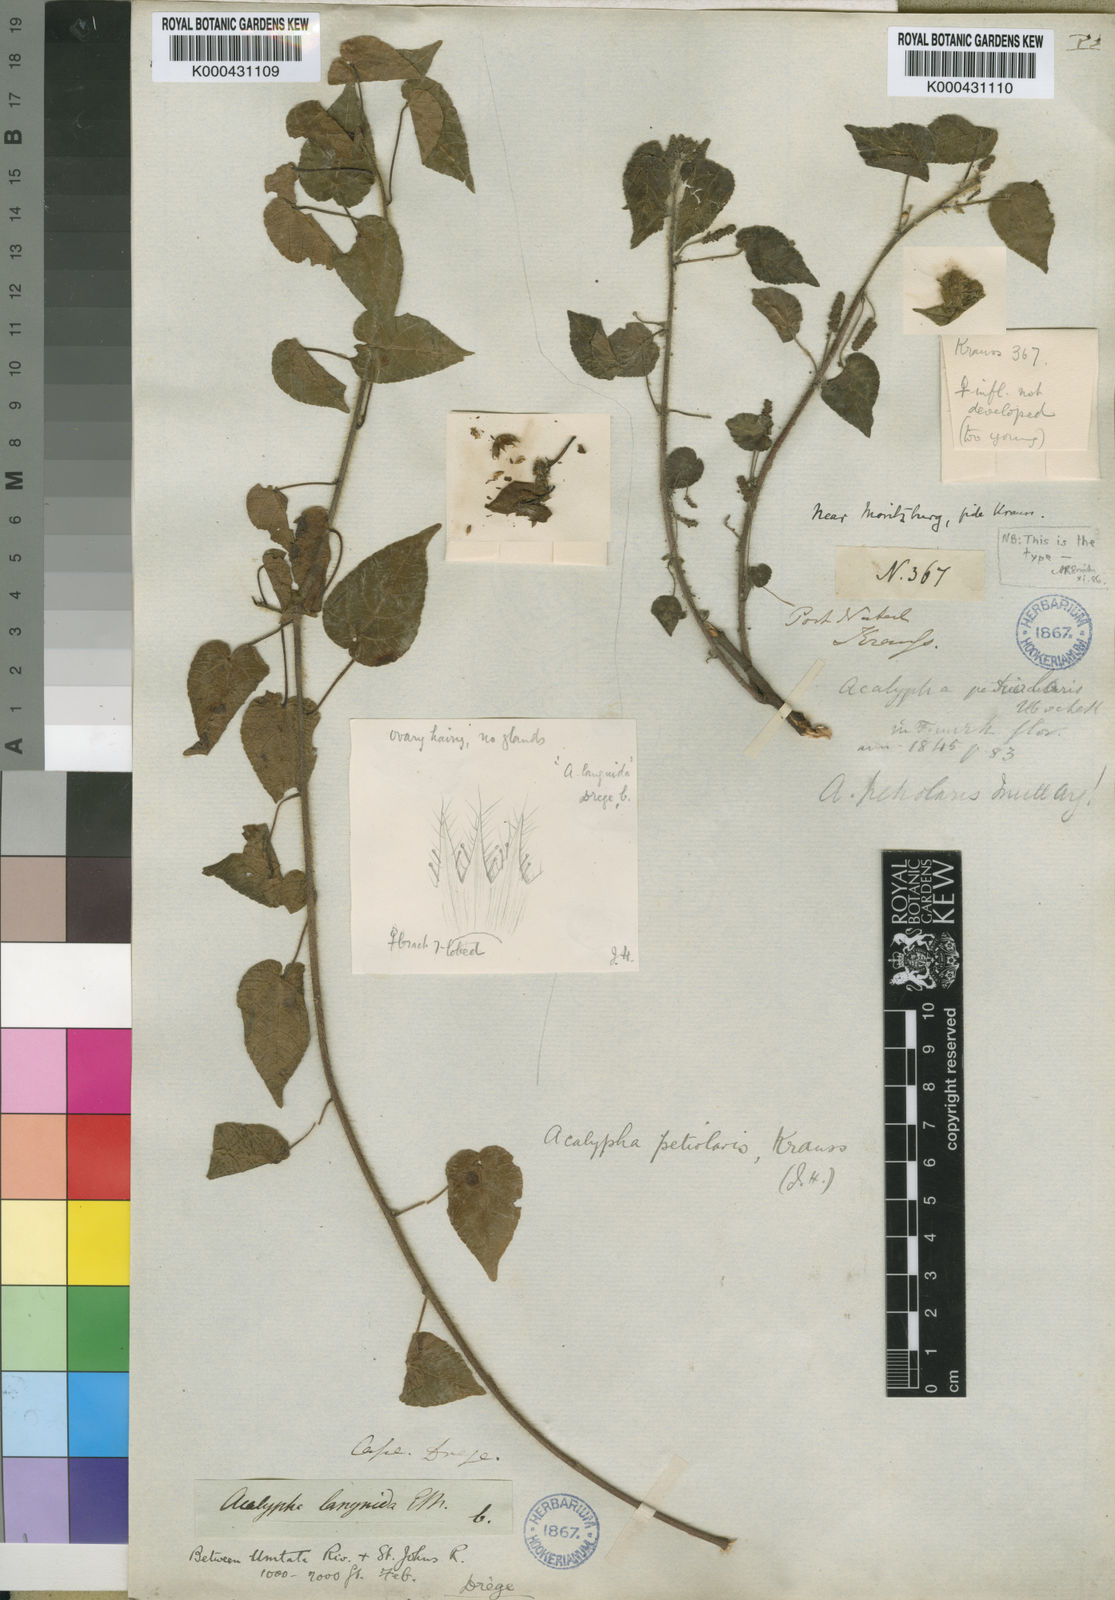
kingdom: Plantae
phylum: Tracheophyta
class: Magnoliopsida
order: Malpighiales
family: Euphorbiaceae
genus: Acalypha
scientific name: Acalypha petiolaris
